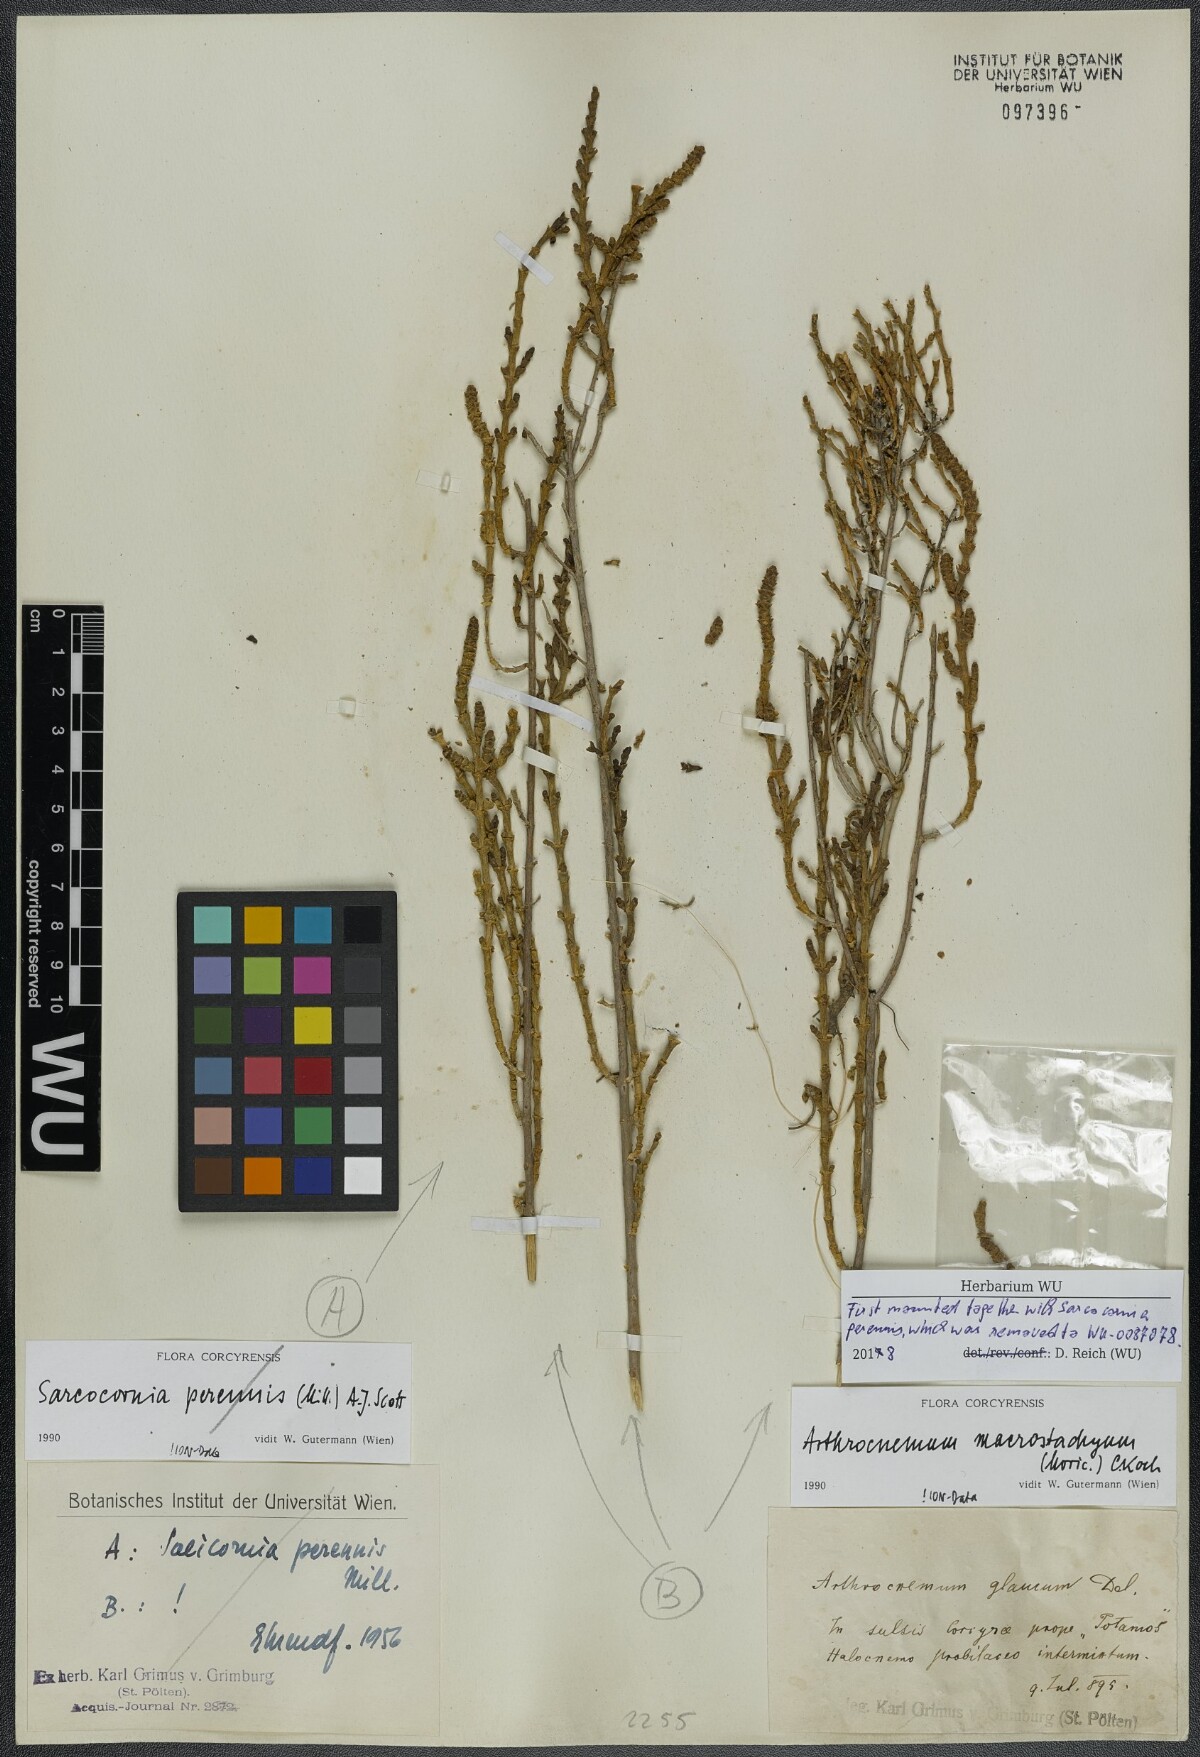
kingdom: Plantae
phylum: Tracheophyta
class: Magnoliopsida
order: Caryophyllales
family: Amaranthaceae
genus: Arthrocaulon
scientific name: Arthrocaulon macrostachyum
